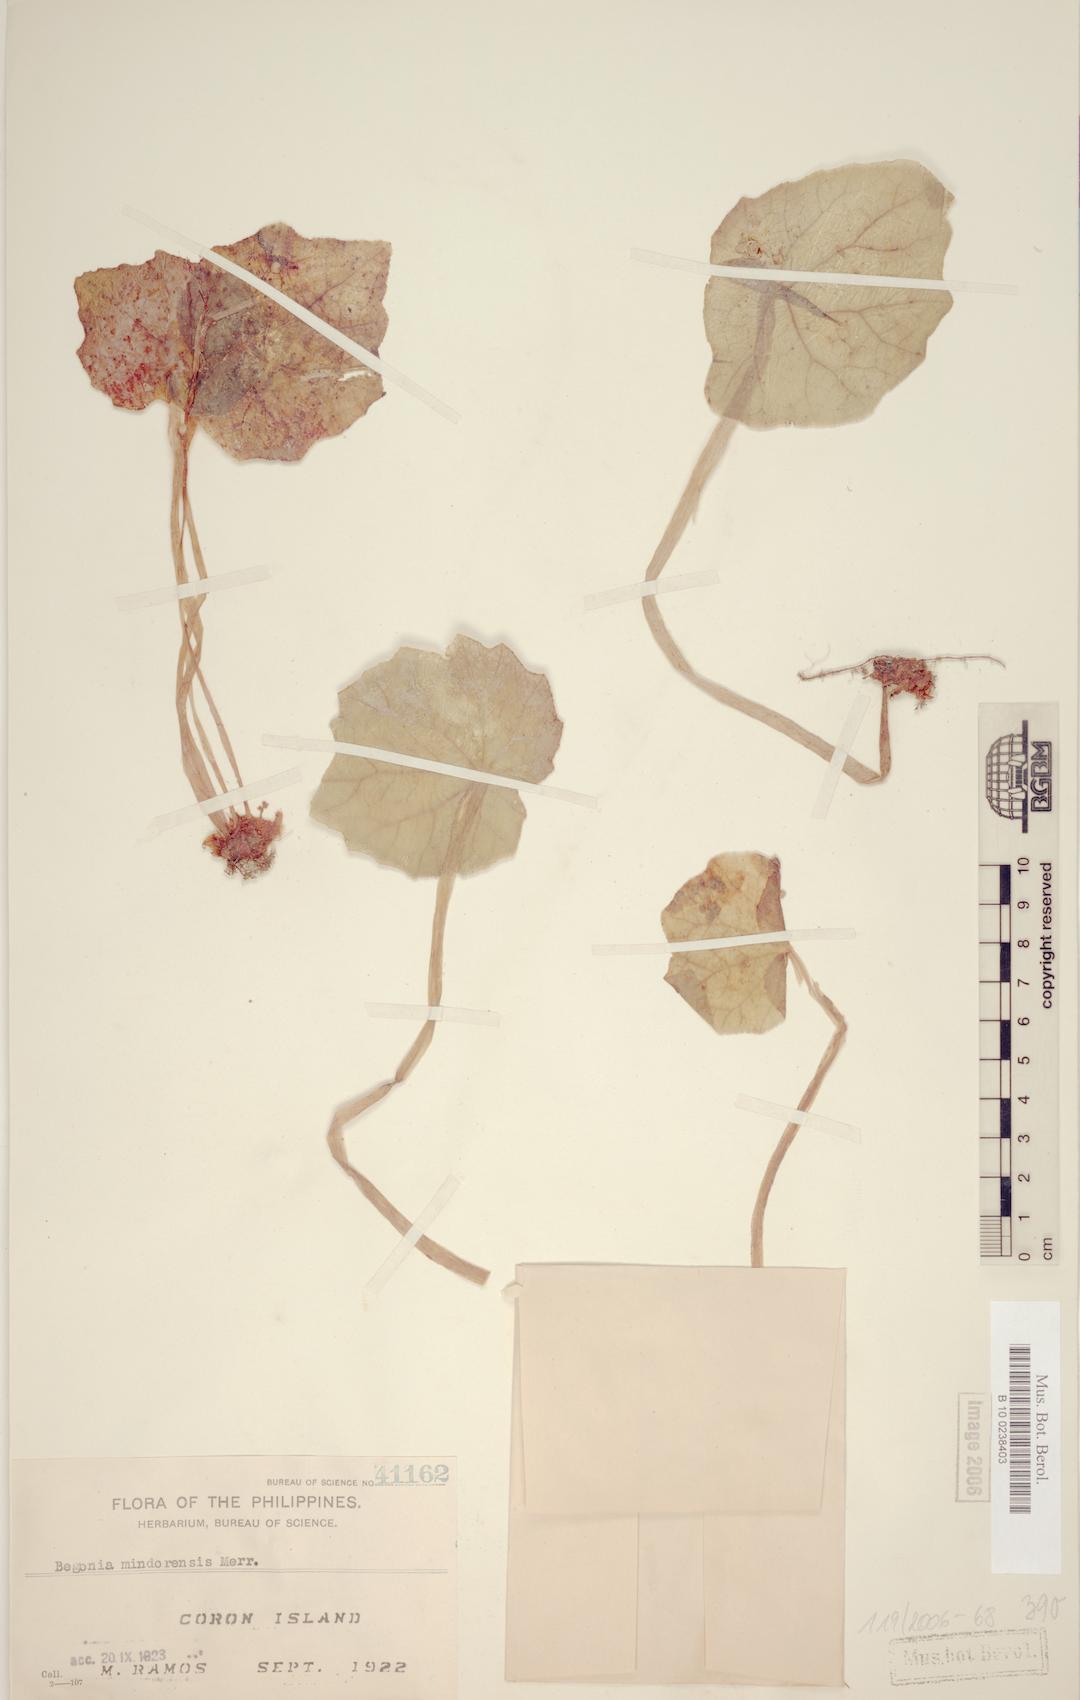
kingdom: Plantae
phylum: Tracheophyta
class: Magnoliopsida
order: Cucurbitales
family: Begoniaceae
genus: Begonia
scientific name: Begonia mindorensis
